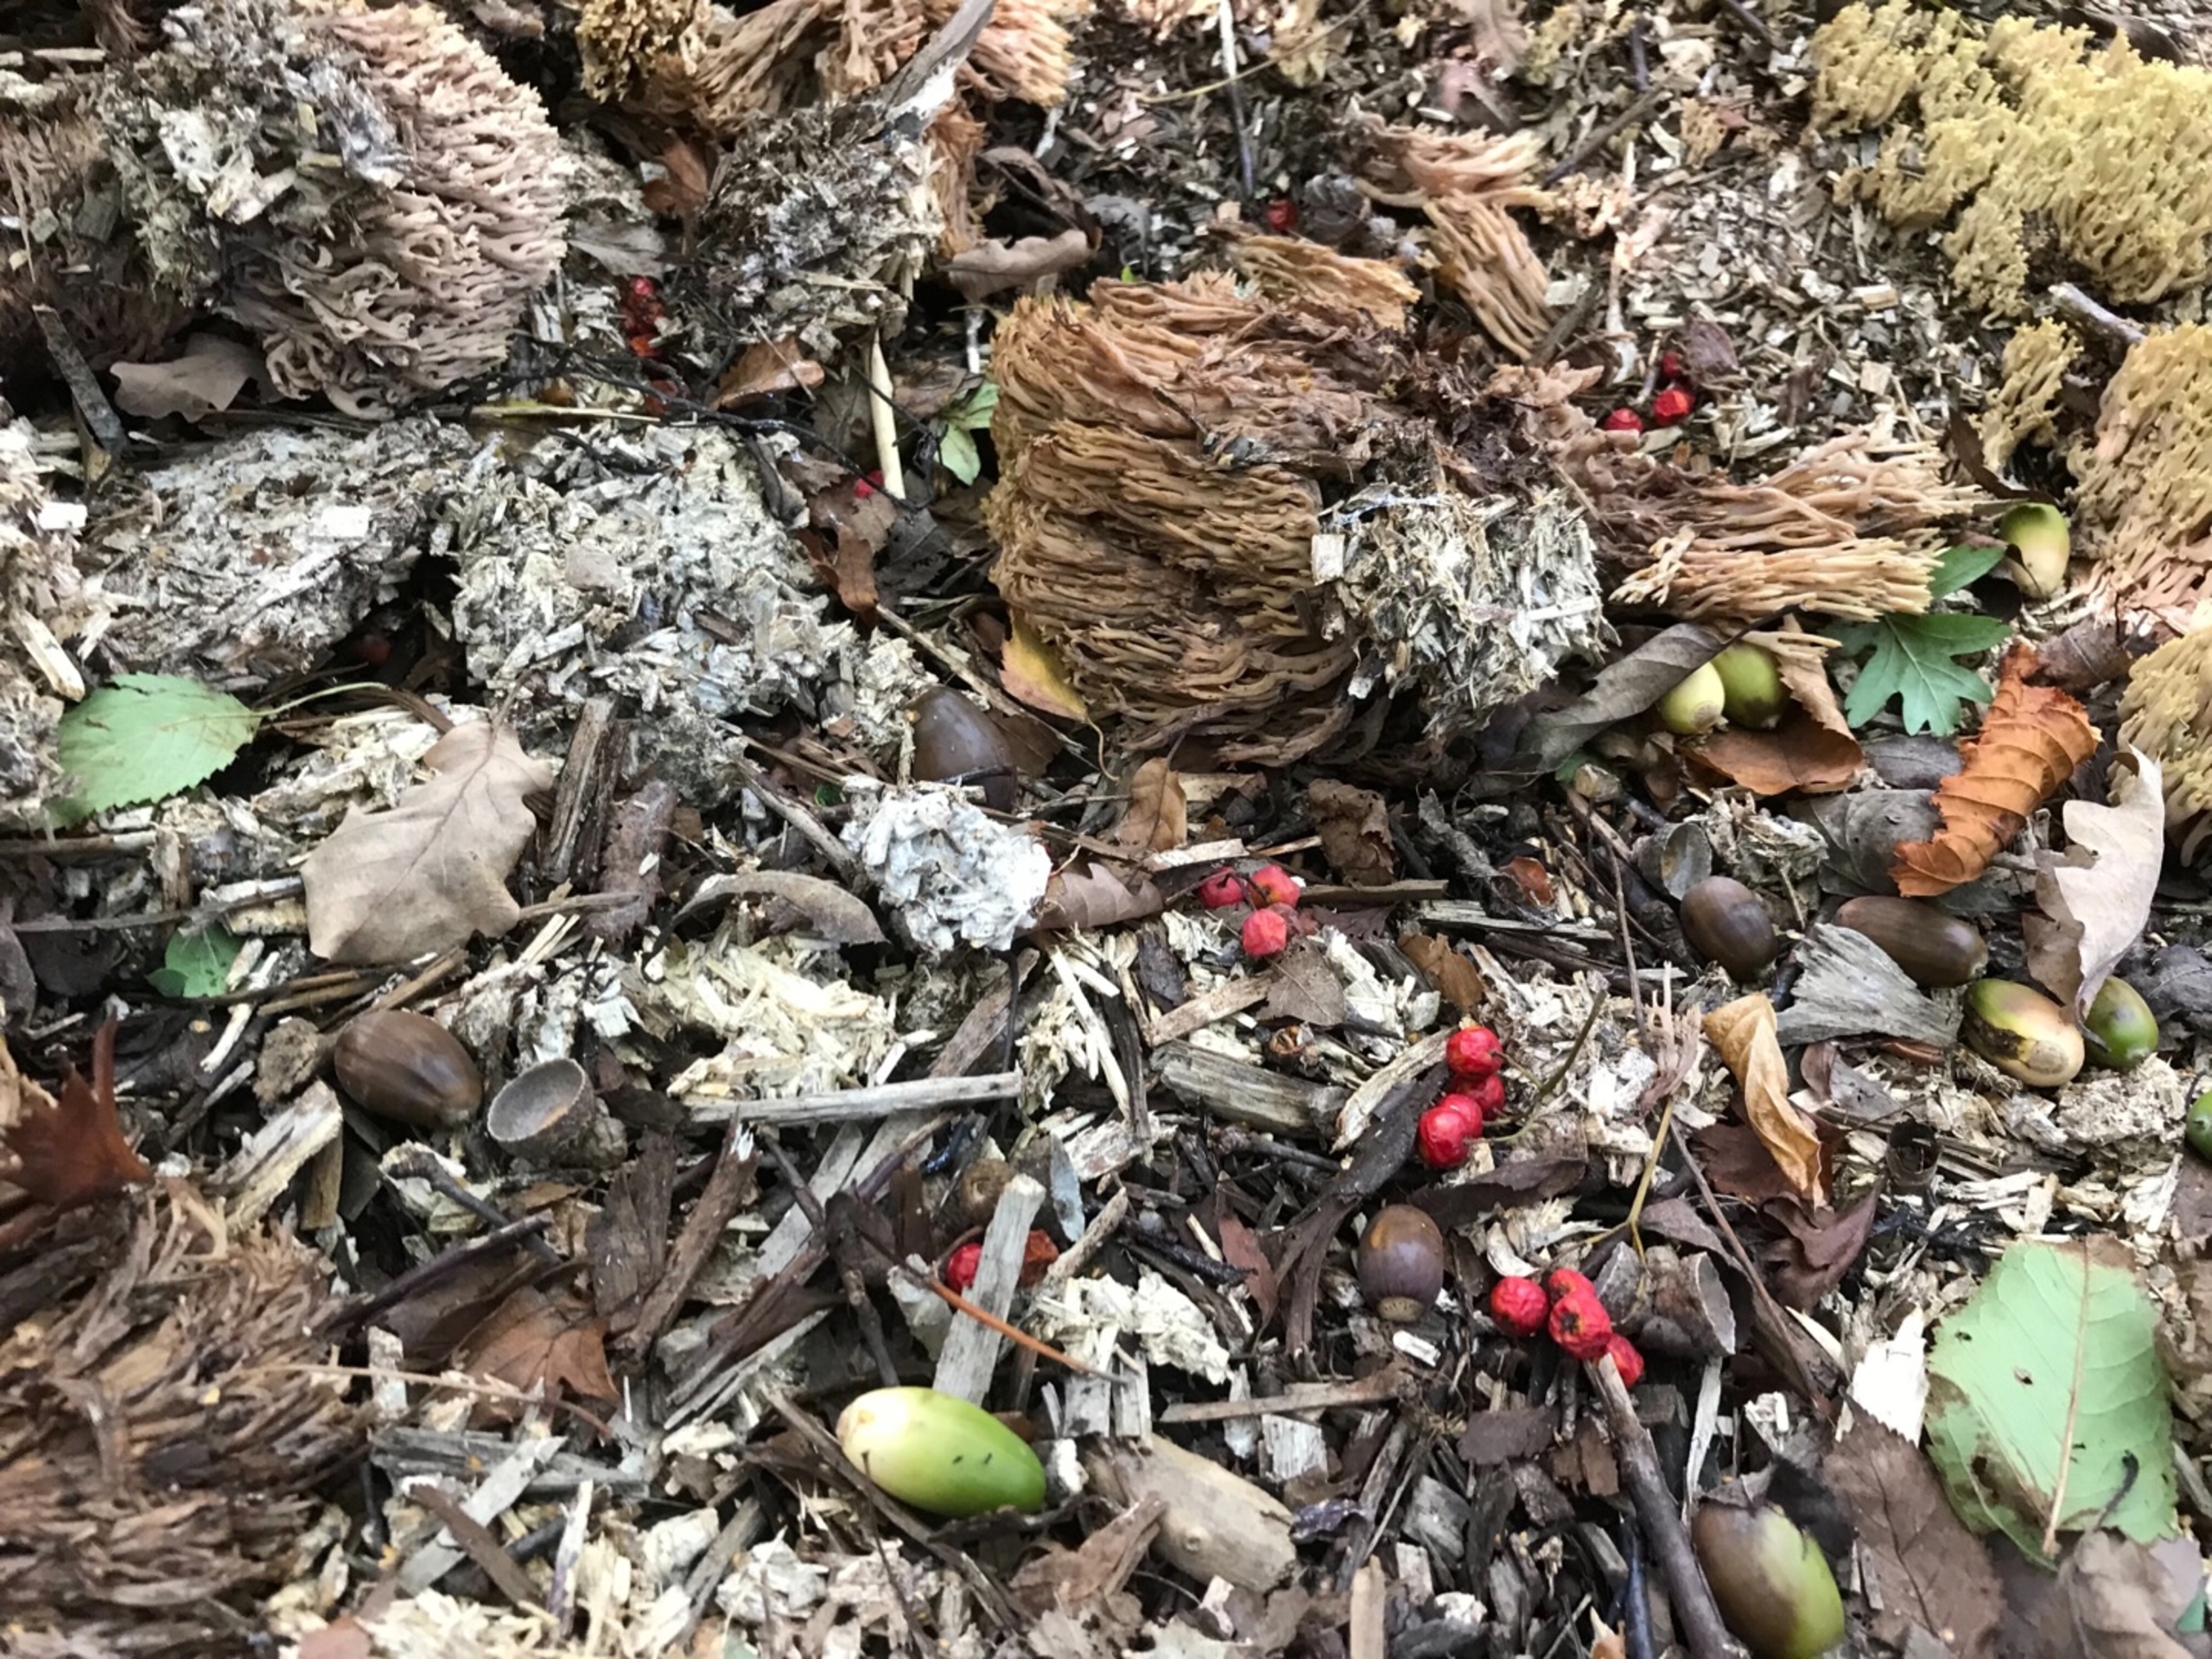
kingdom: Fungi
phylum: Basidiomycota
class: Agaricomycetes
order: Gomphales
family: Gomphaceae
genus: Ramaria
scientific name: Ramaria stricta
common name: Rank koralsvamp
